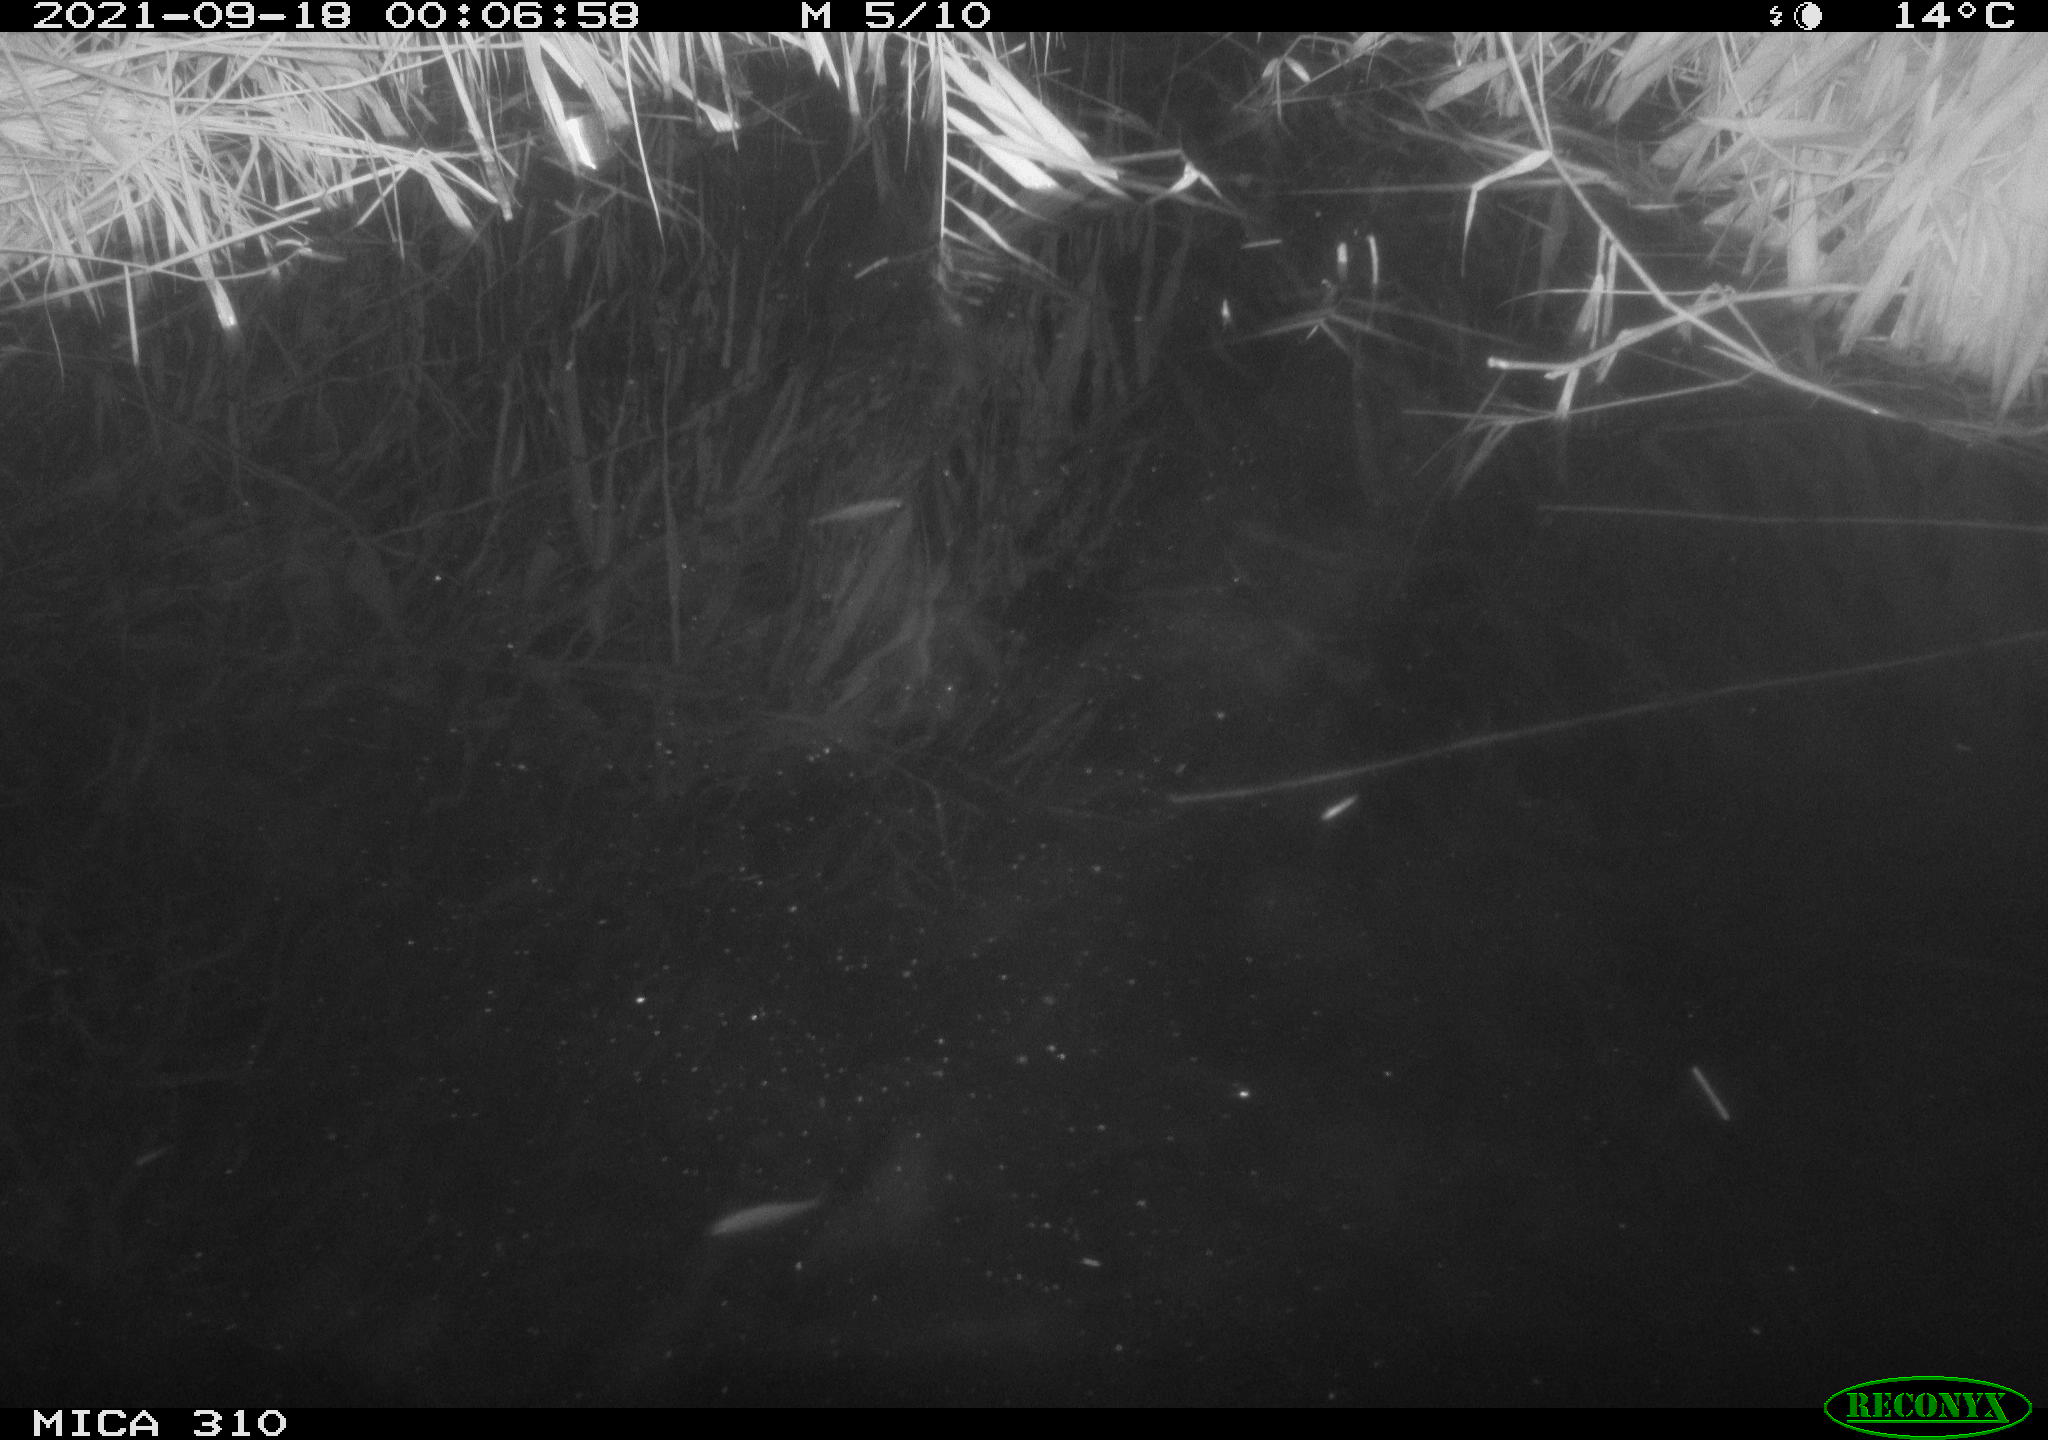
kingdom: Animalia
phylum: Chordata
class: Aves
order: Anseriformes
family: Anatidae
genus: Mareca
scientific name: Mareca strepera
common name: Gadwall
